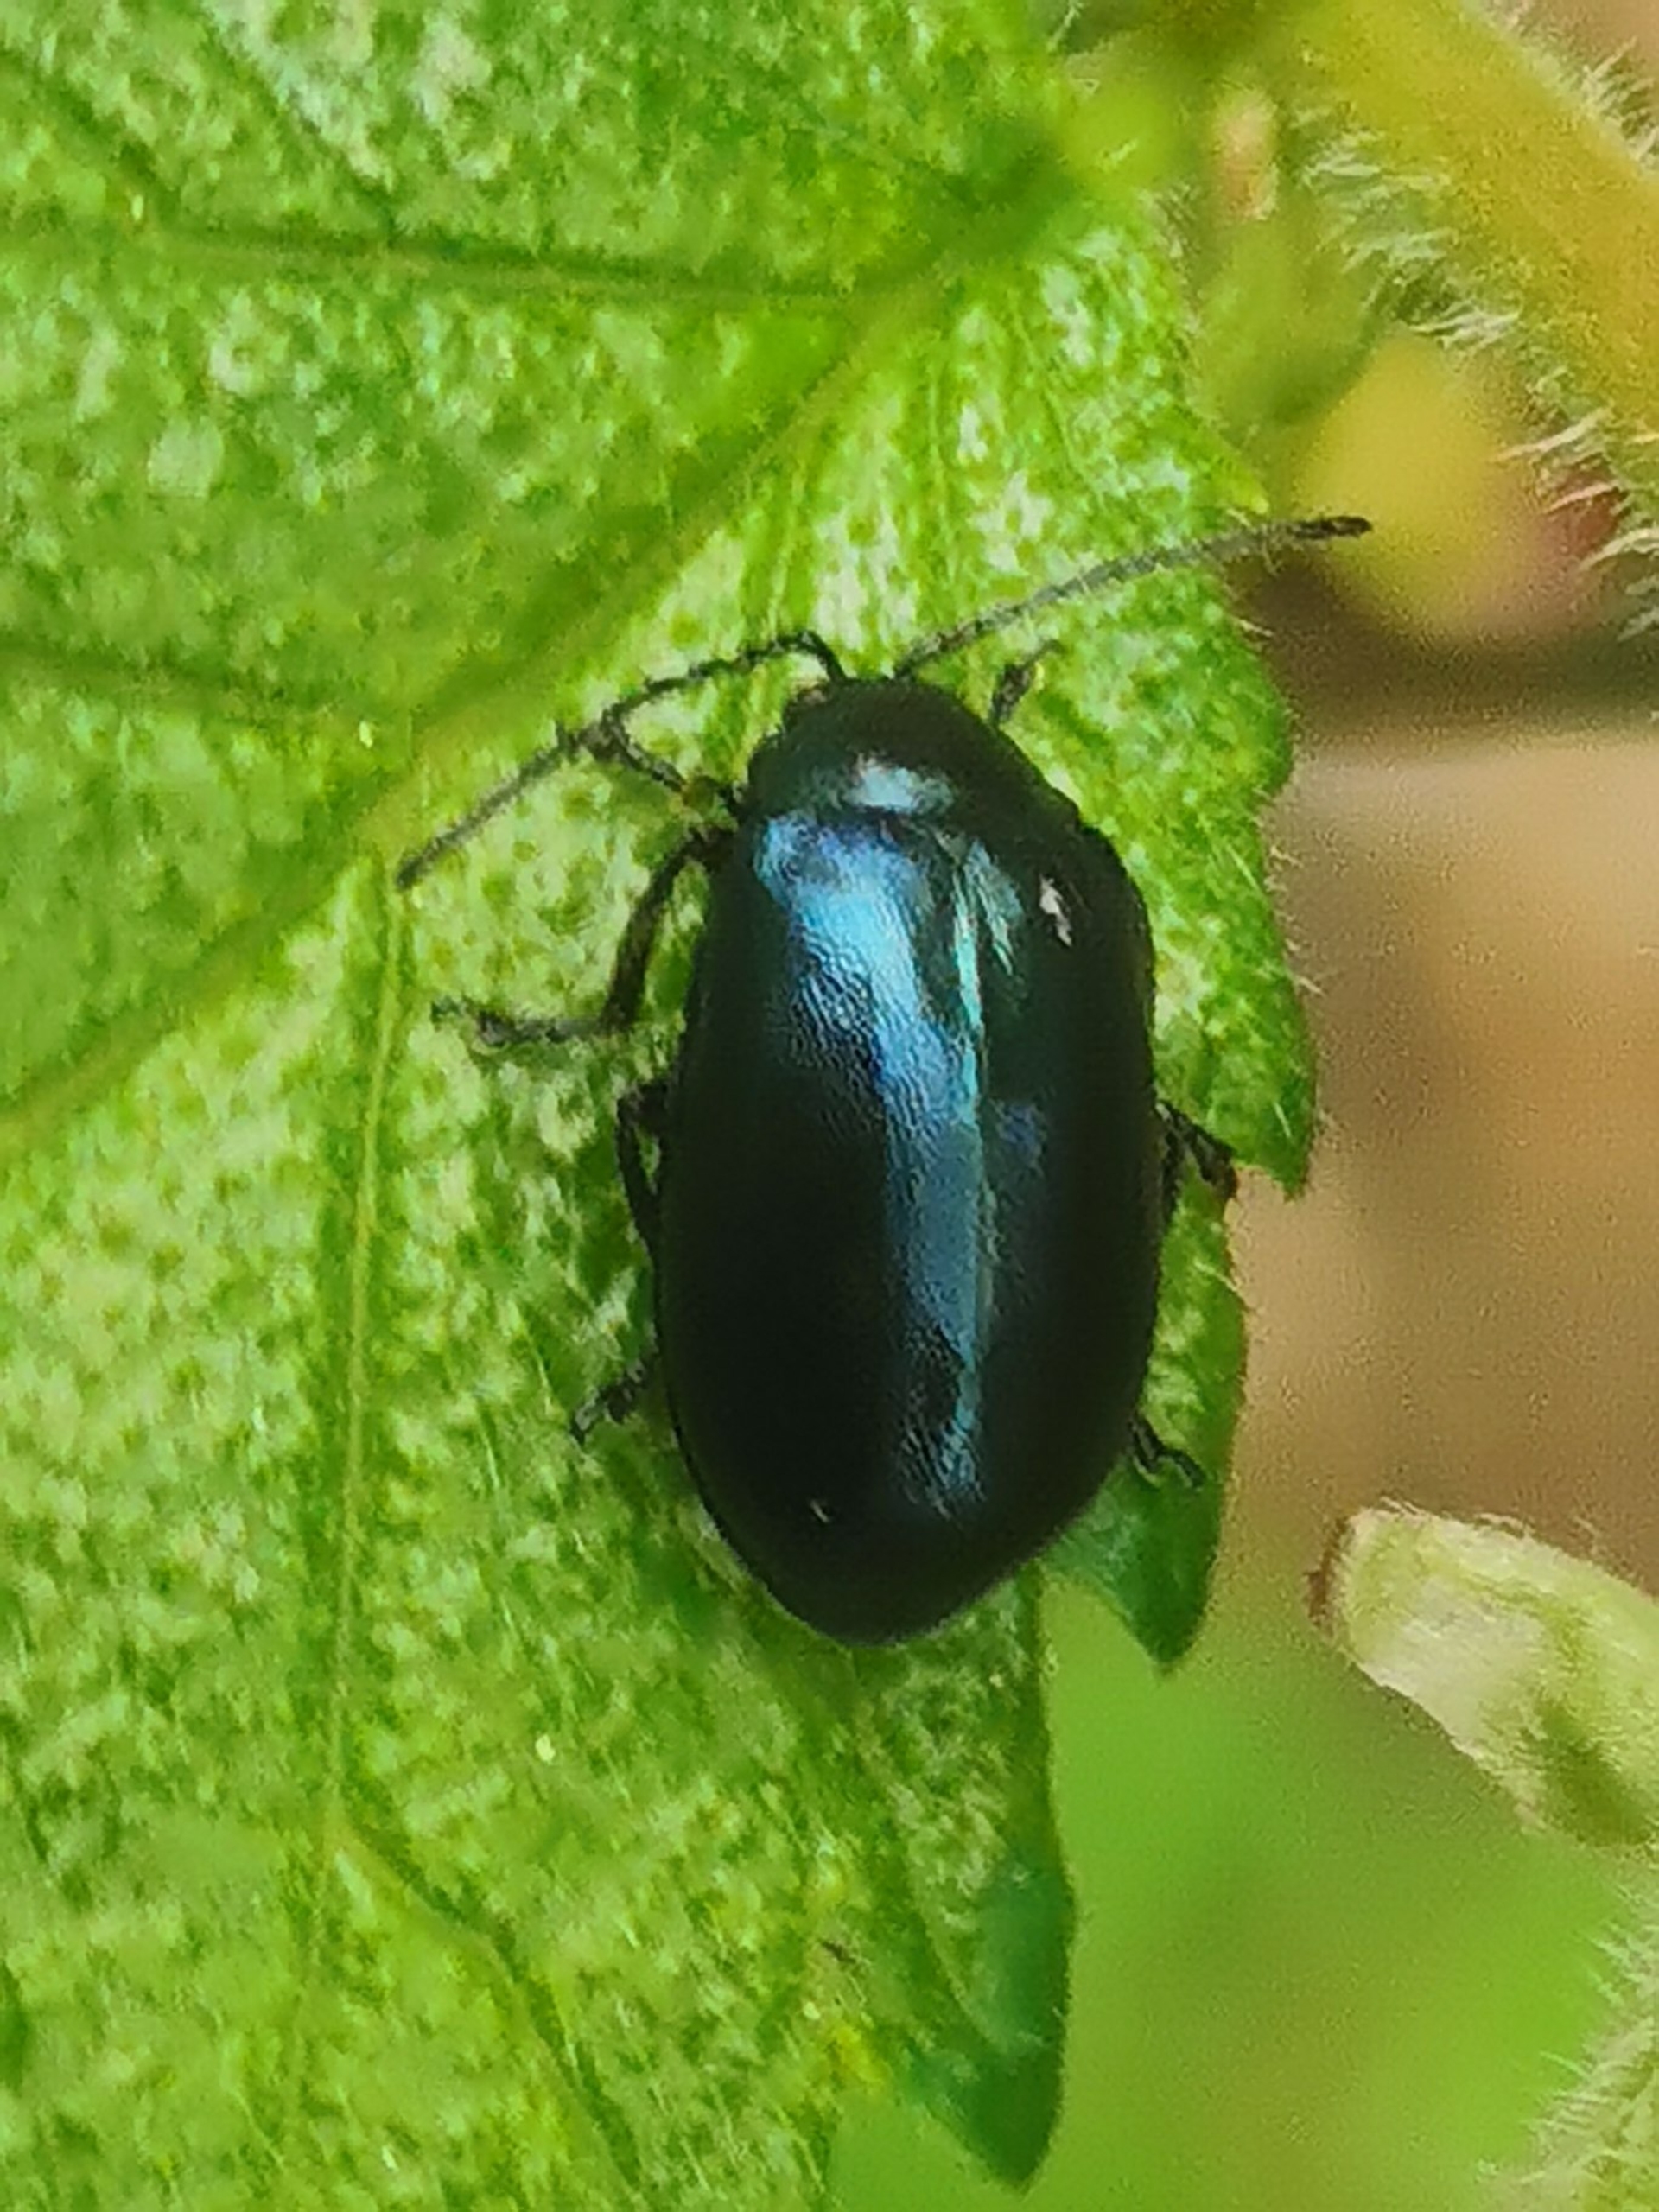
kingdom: Animalia
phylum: Arthropoda
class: Insecta
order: Coleoptera
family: Chrysomelidae
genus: Agelastica
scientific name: Agelastica alni
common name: Ellebladbille
